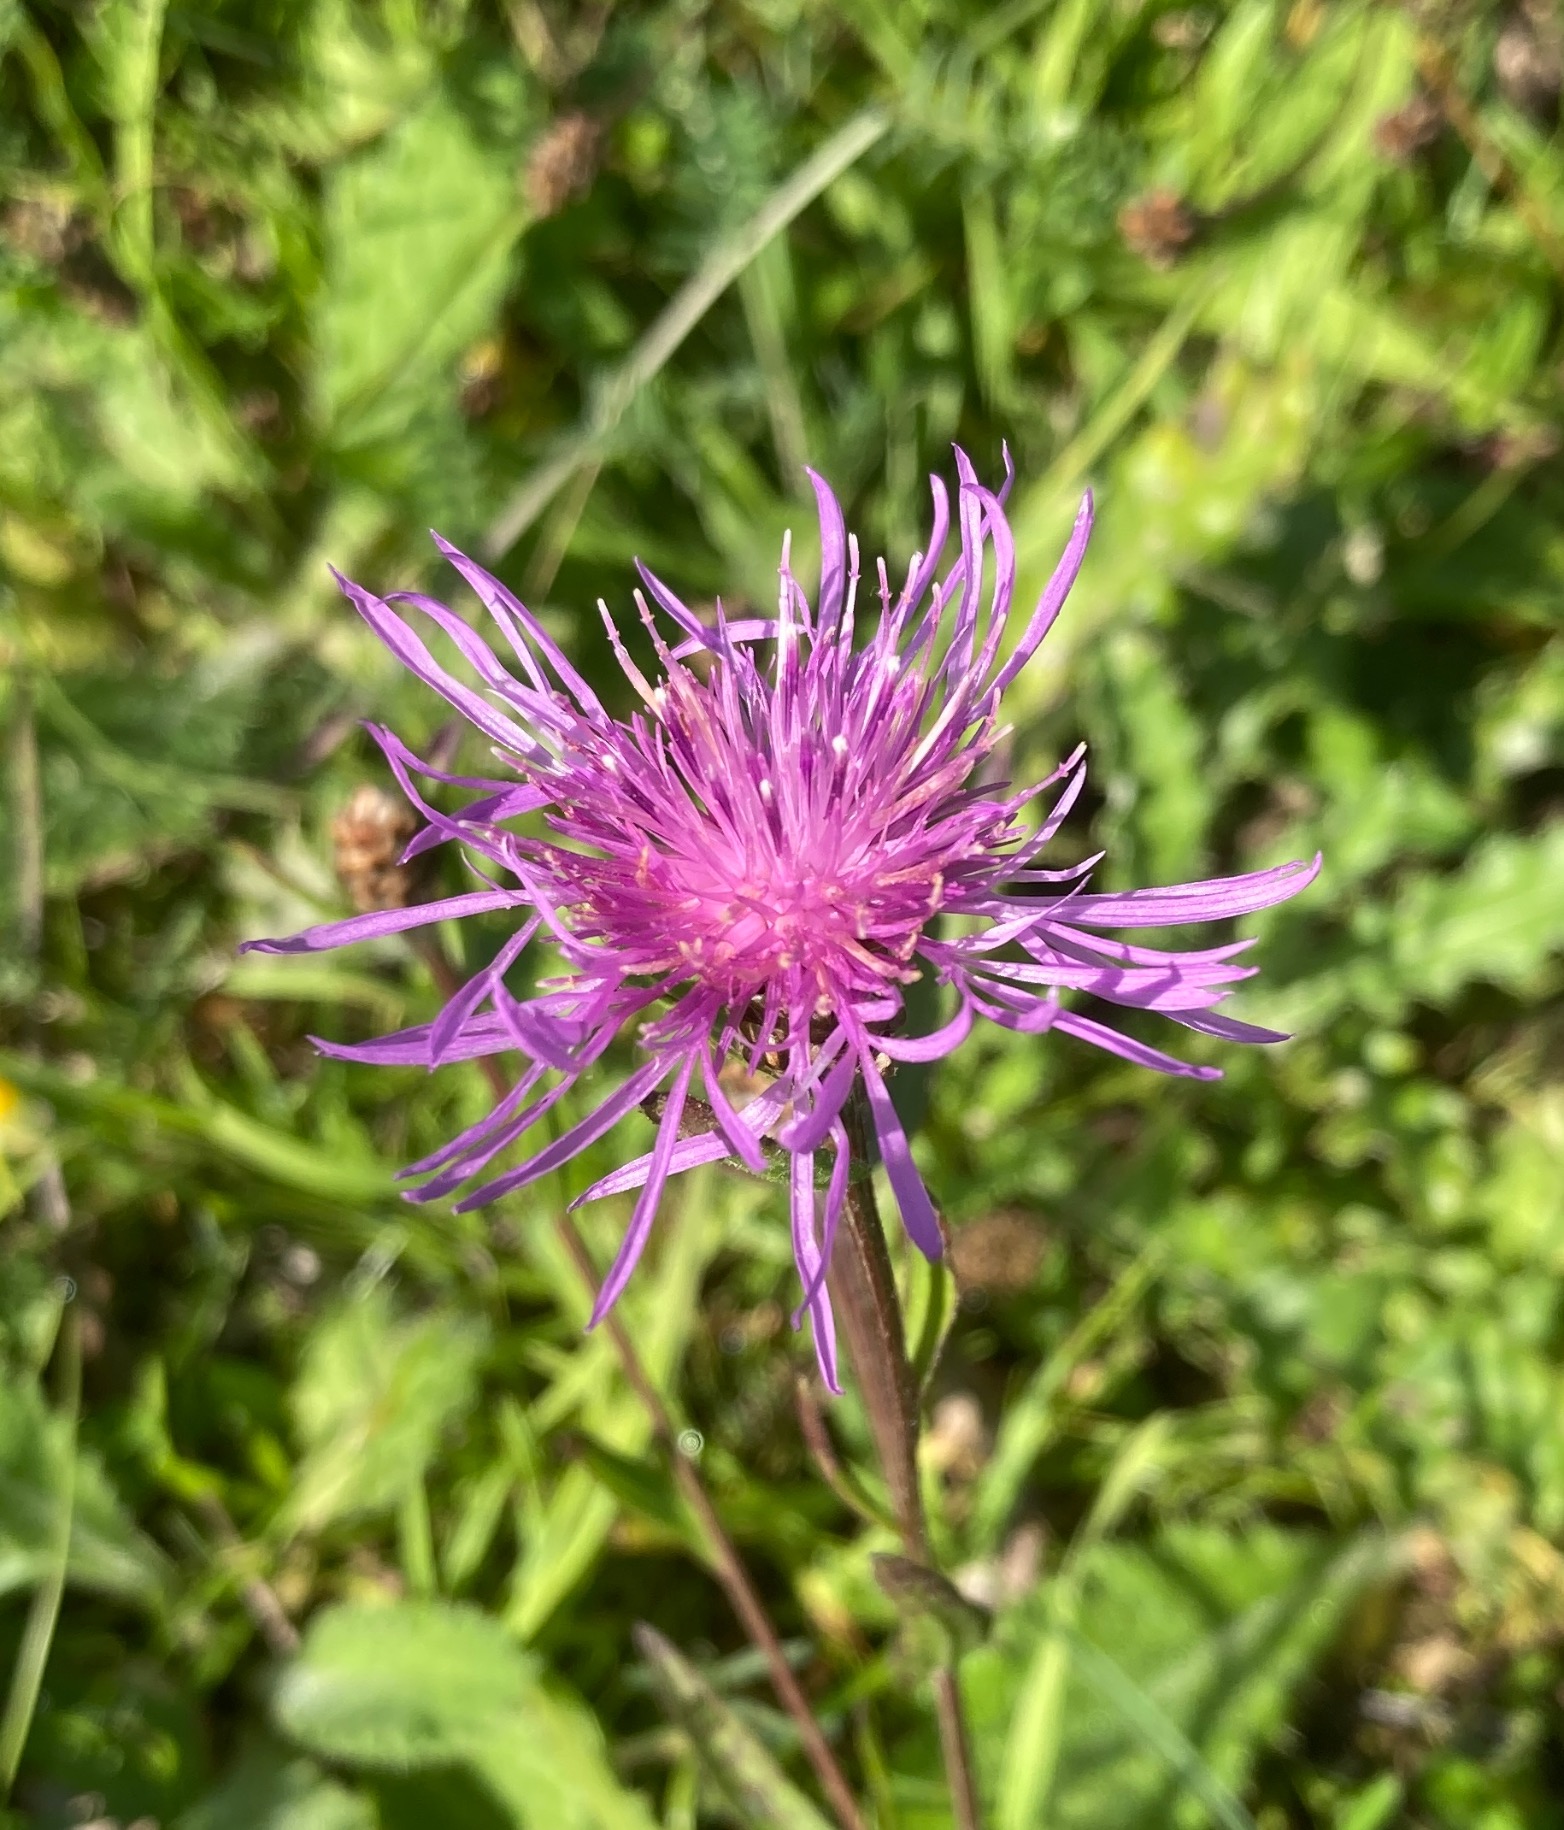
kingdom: Plantae
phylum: Tracheophyta
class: Magnoliopsida
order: Asterales
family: Asteraceae
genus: Centaurea
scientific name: Centaurea jacea
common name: Almindelig knopurt
